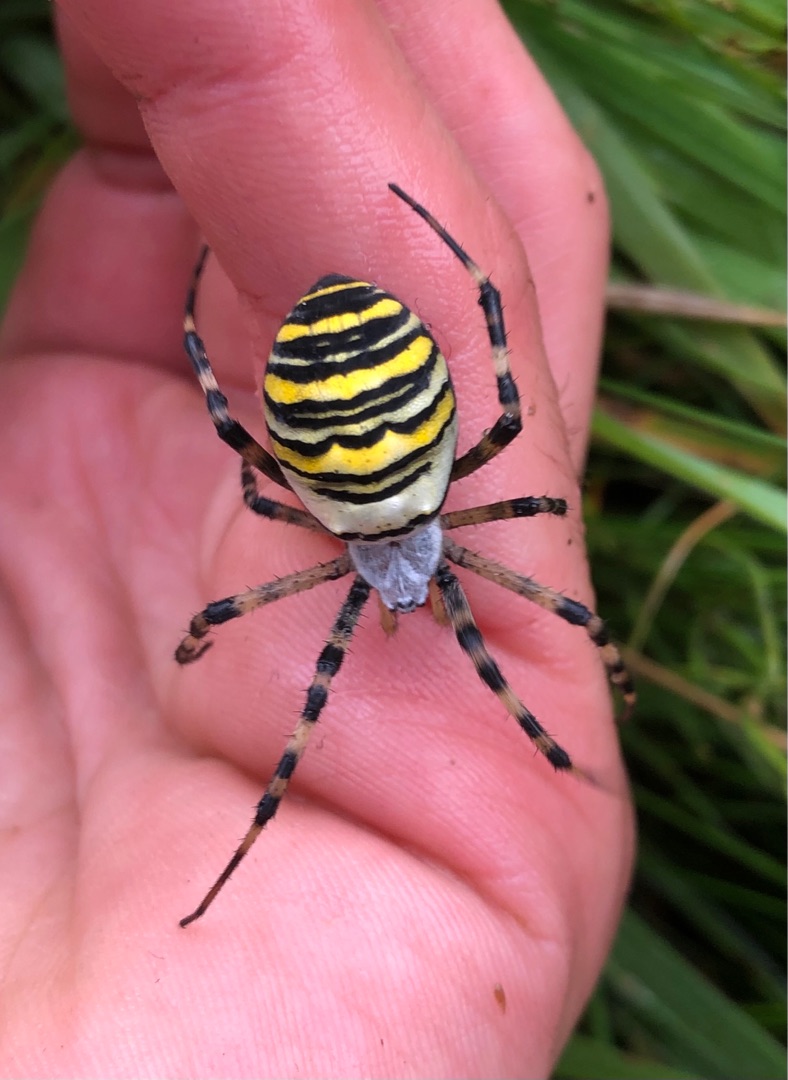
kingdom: Animalia
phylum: Arthropoda
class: Arachnida
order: Araneae
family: Araneidae
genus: Argiope
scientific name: Argiope bruennichi
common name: Hvepseedderkop
